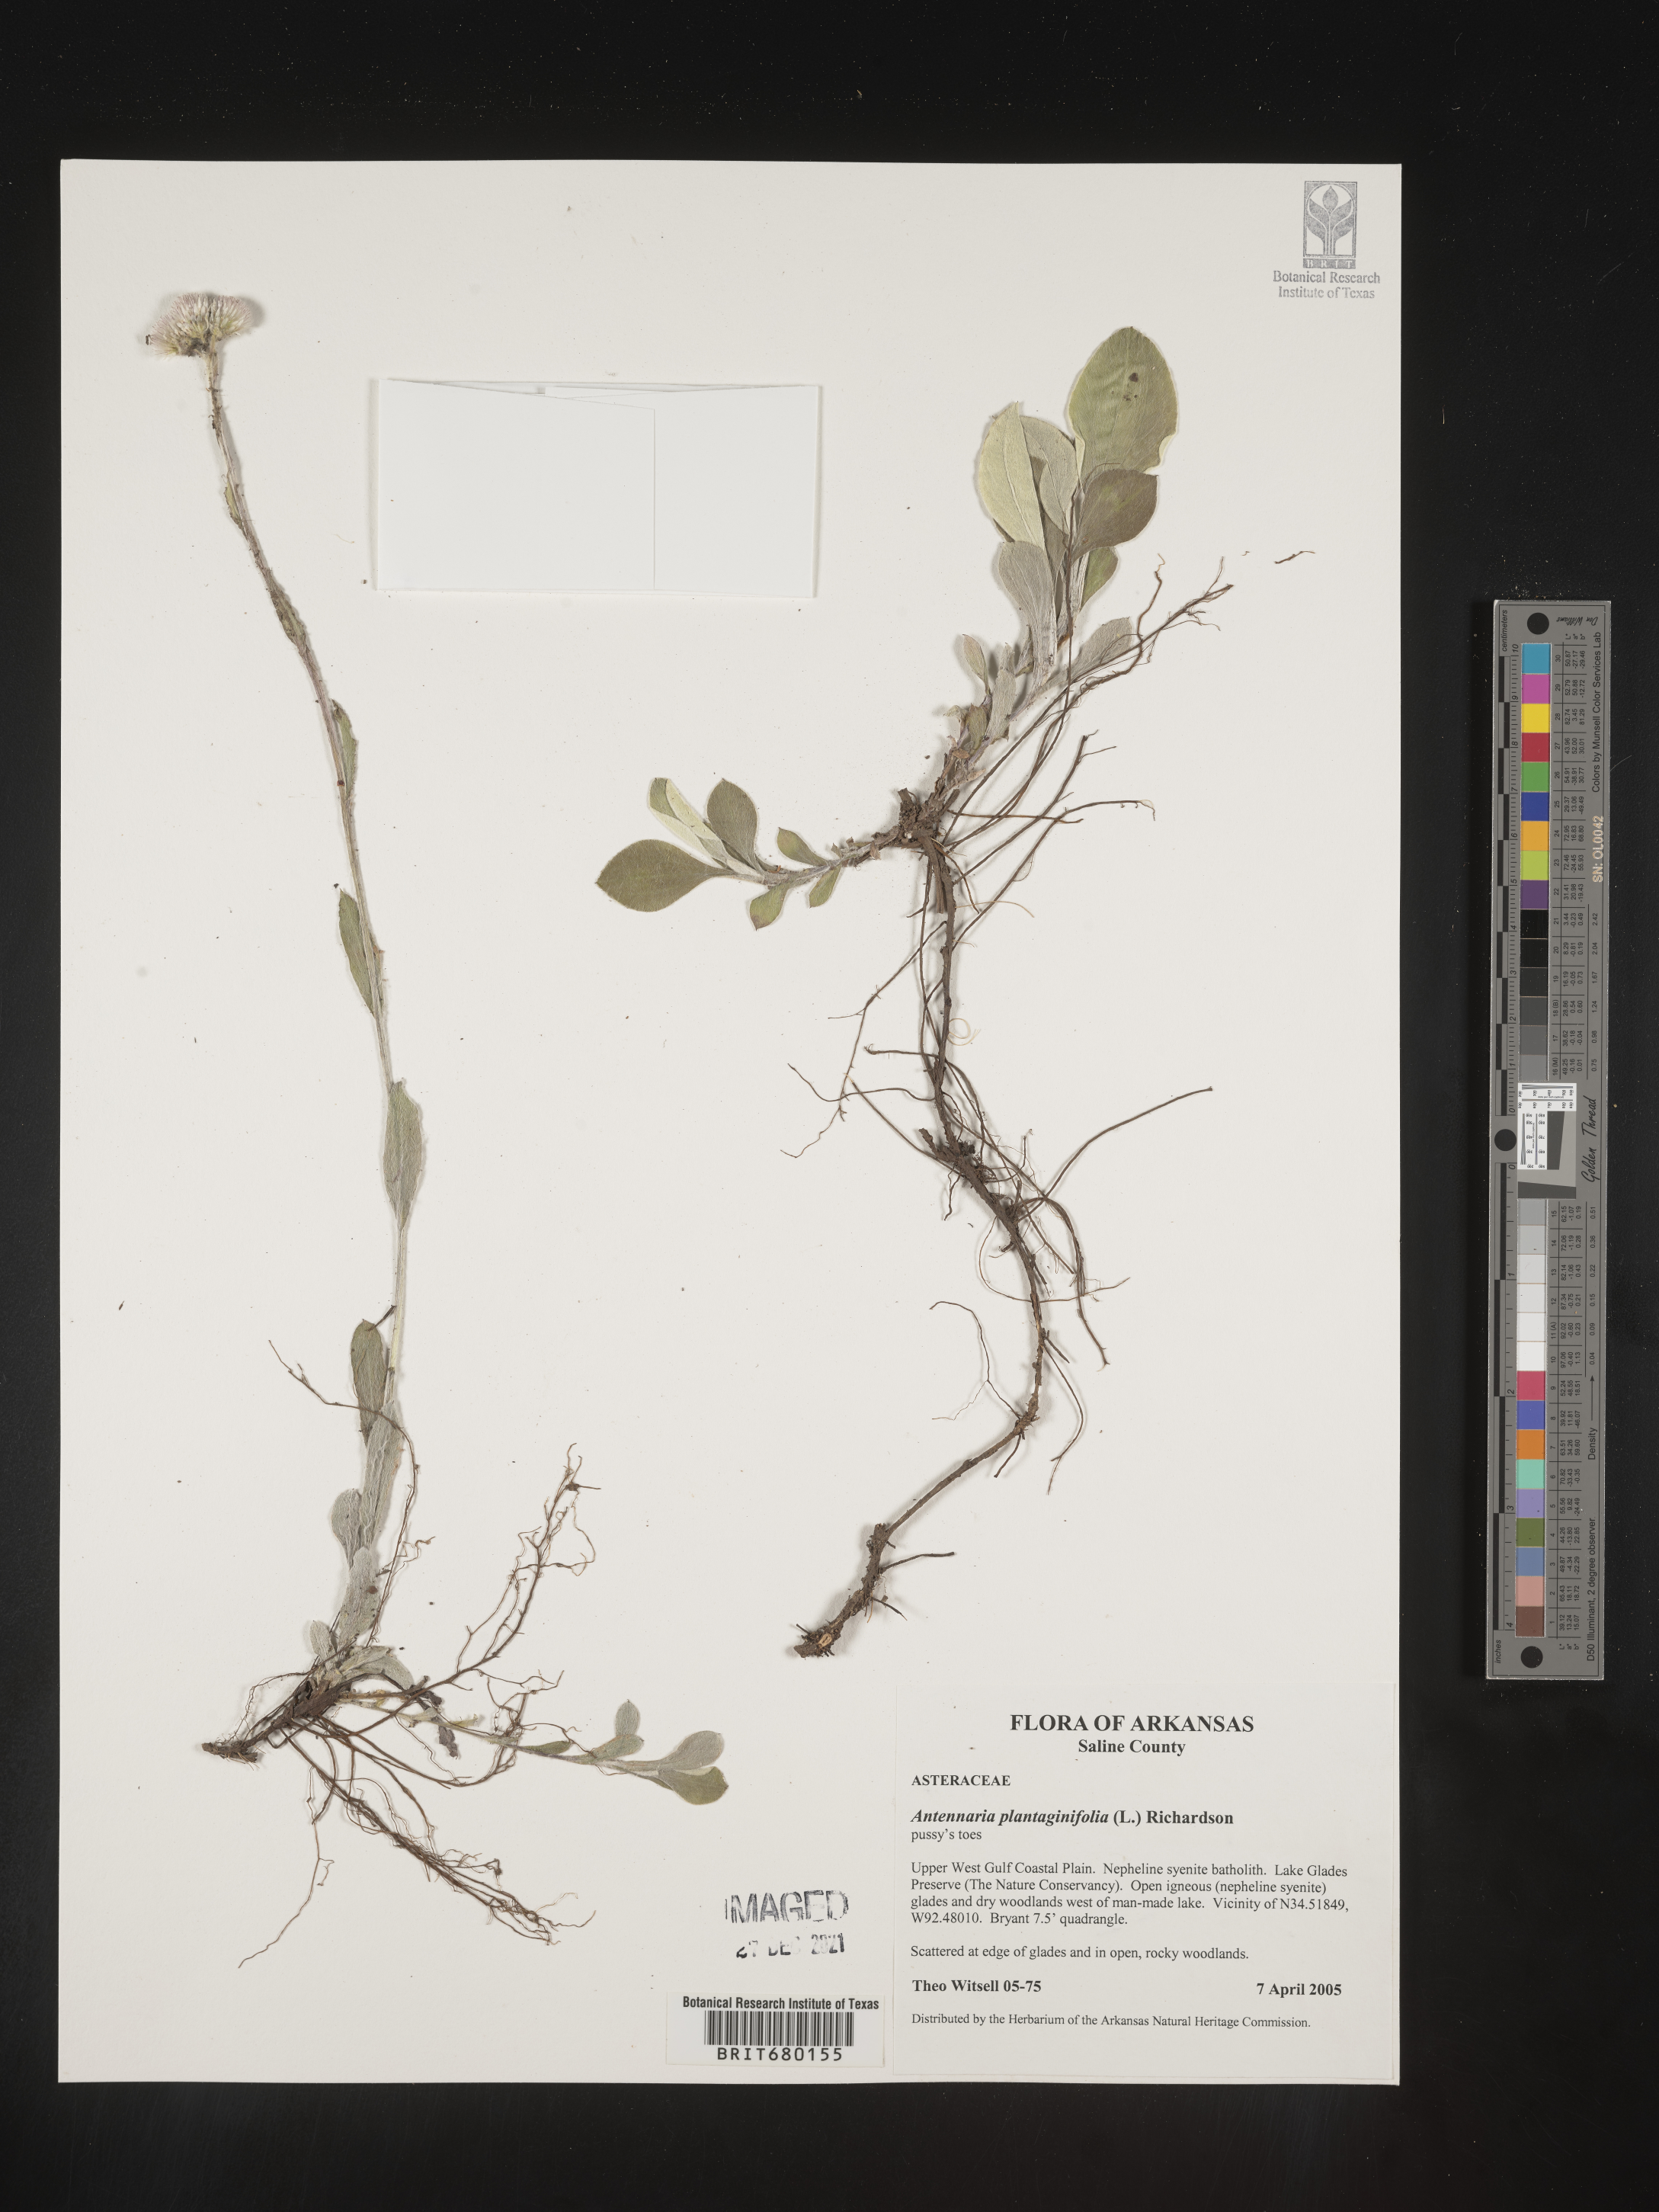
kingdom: Plantae
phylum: Tracheophyta
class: Magnoliopsida
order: Asterales
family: Asteraceae
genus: Antennaria
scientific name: Antennaria plantaginifolia
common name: Plantain-leaved pussytoes
